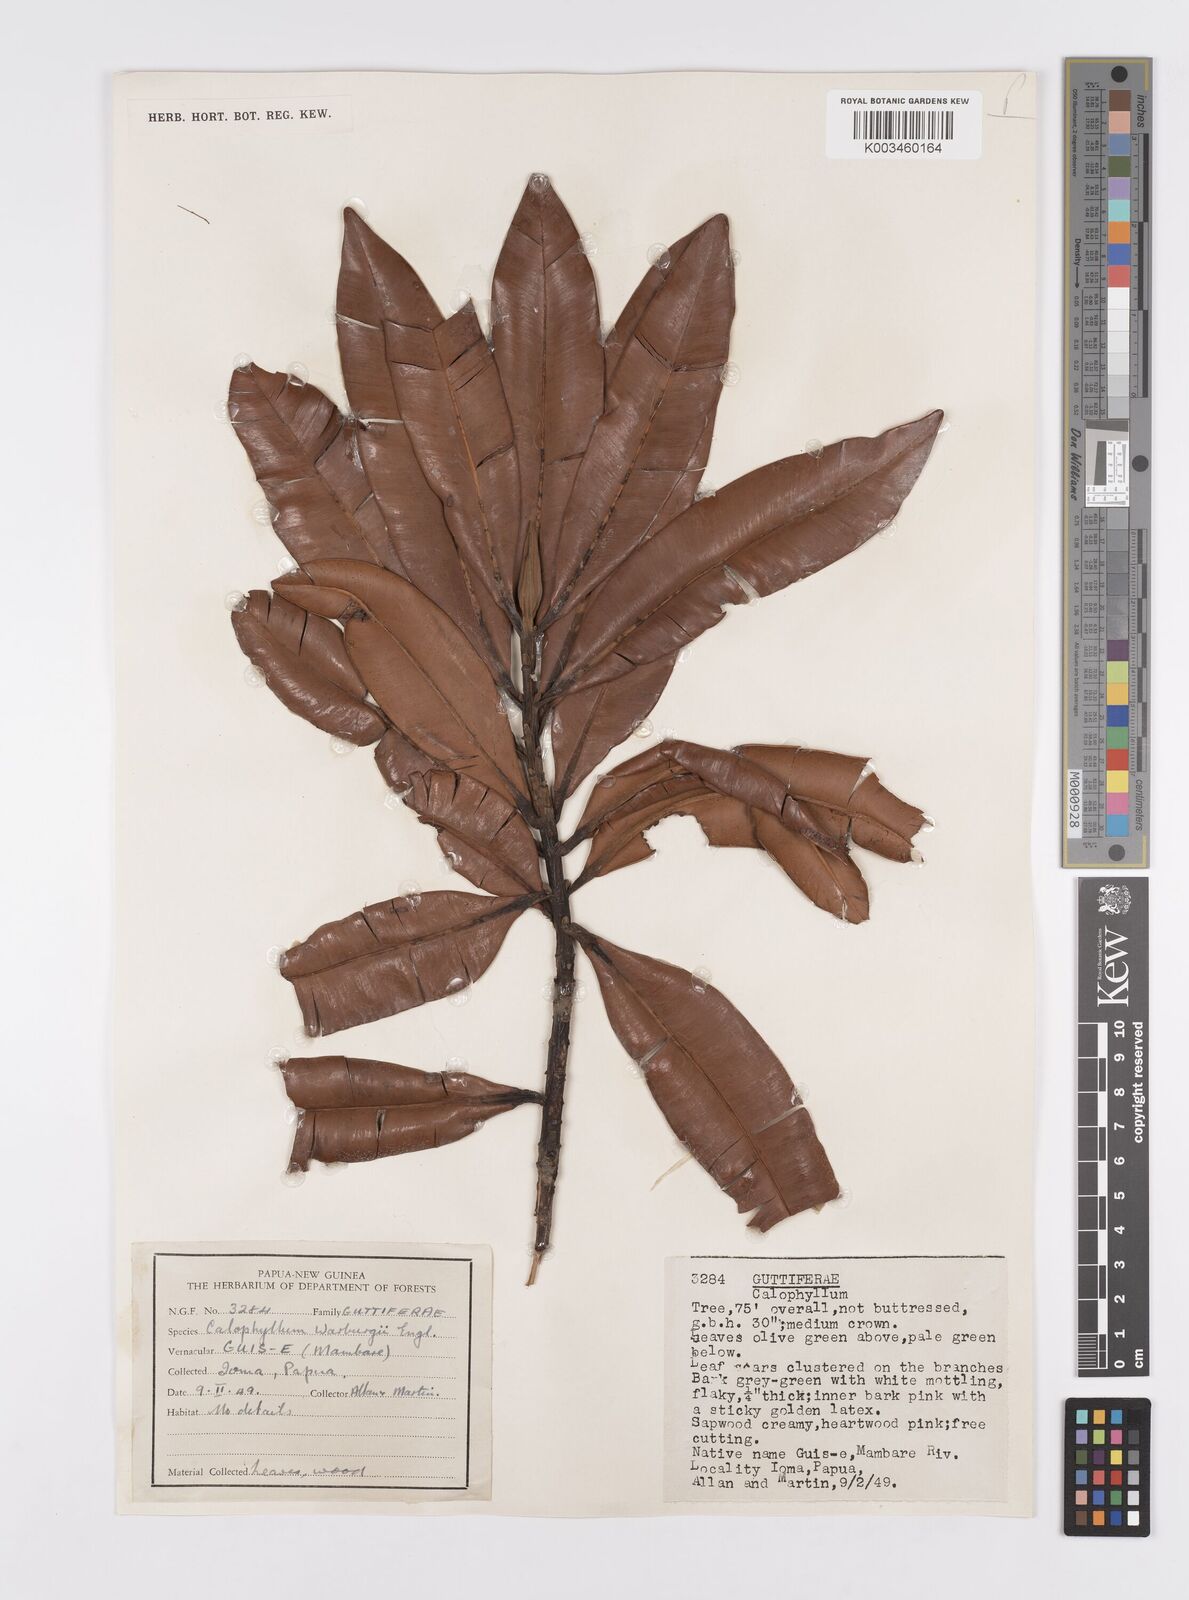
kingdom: Plantae
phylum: Tracheophyta
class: Magnoliopsida
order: Malpighiales
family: Calophyllaceae
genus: Calophyllum
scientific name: Calophyllum laticostatum
